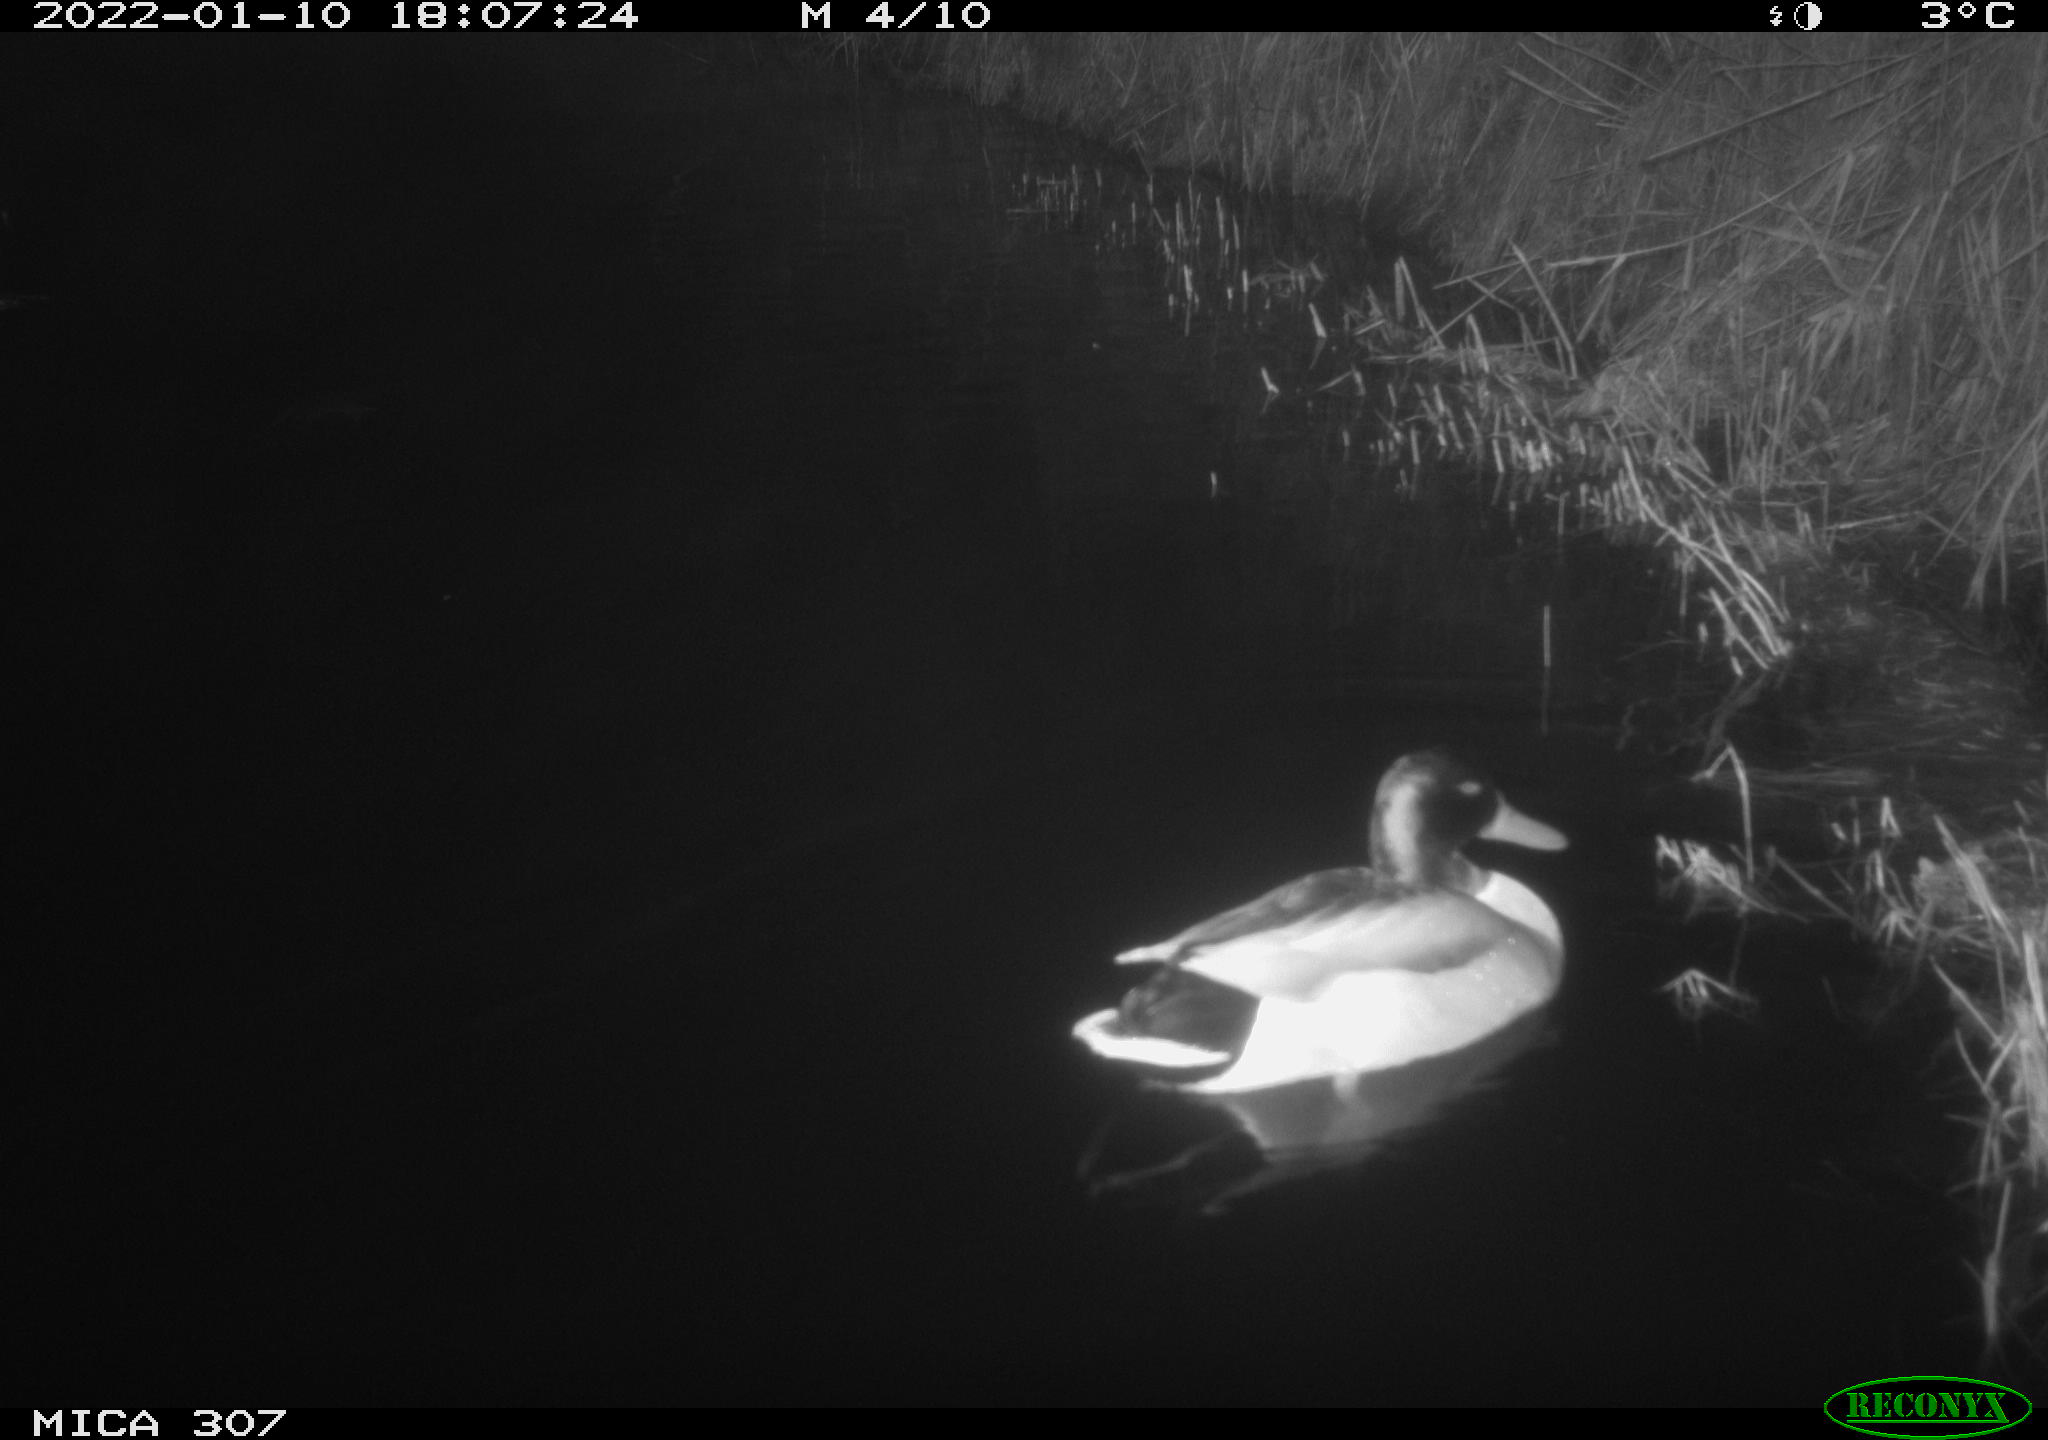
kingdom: Animalia
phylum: Chordata
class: Aves
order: Anseriformes
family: Anatidae
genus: Anas
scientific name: Anas
